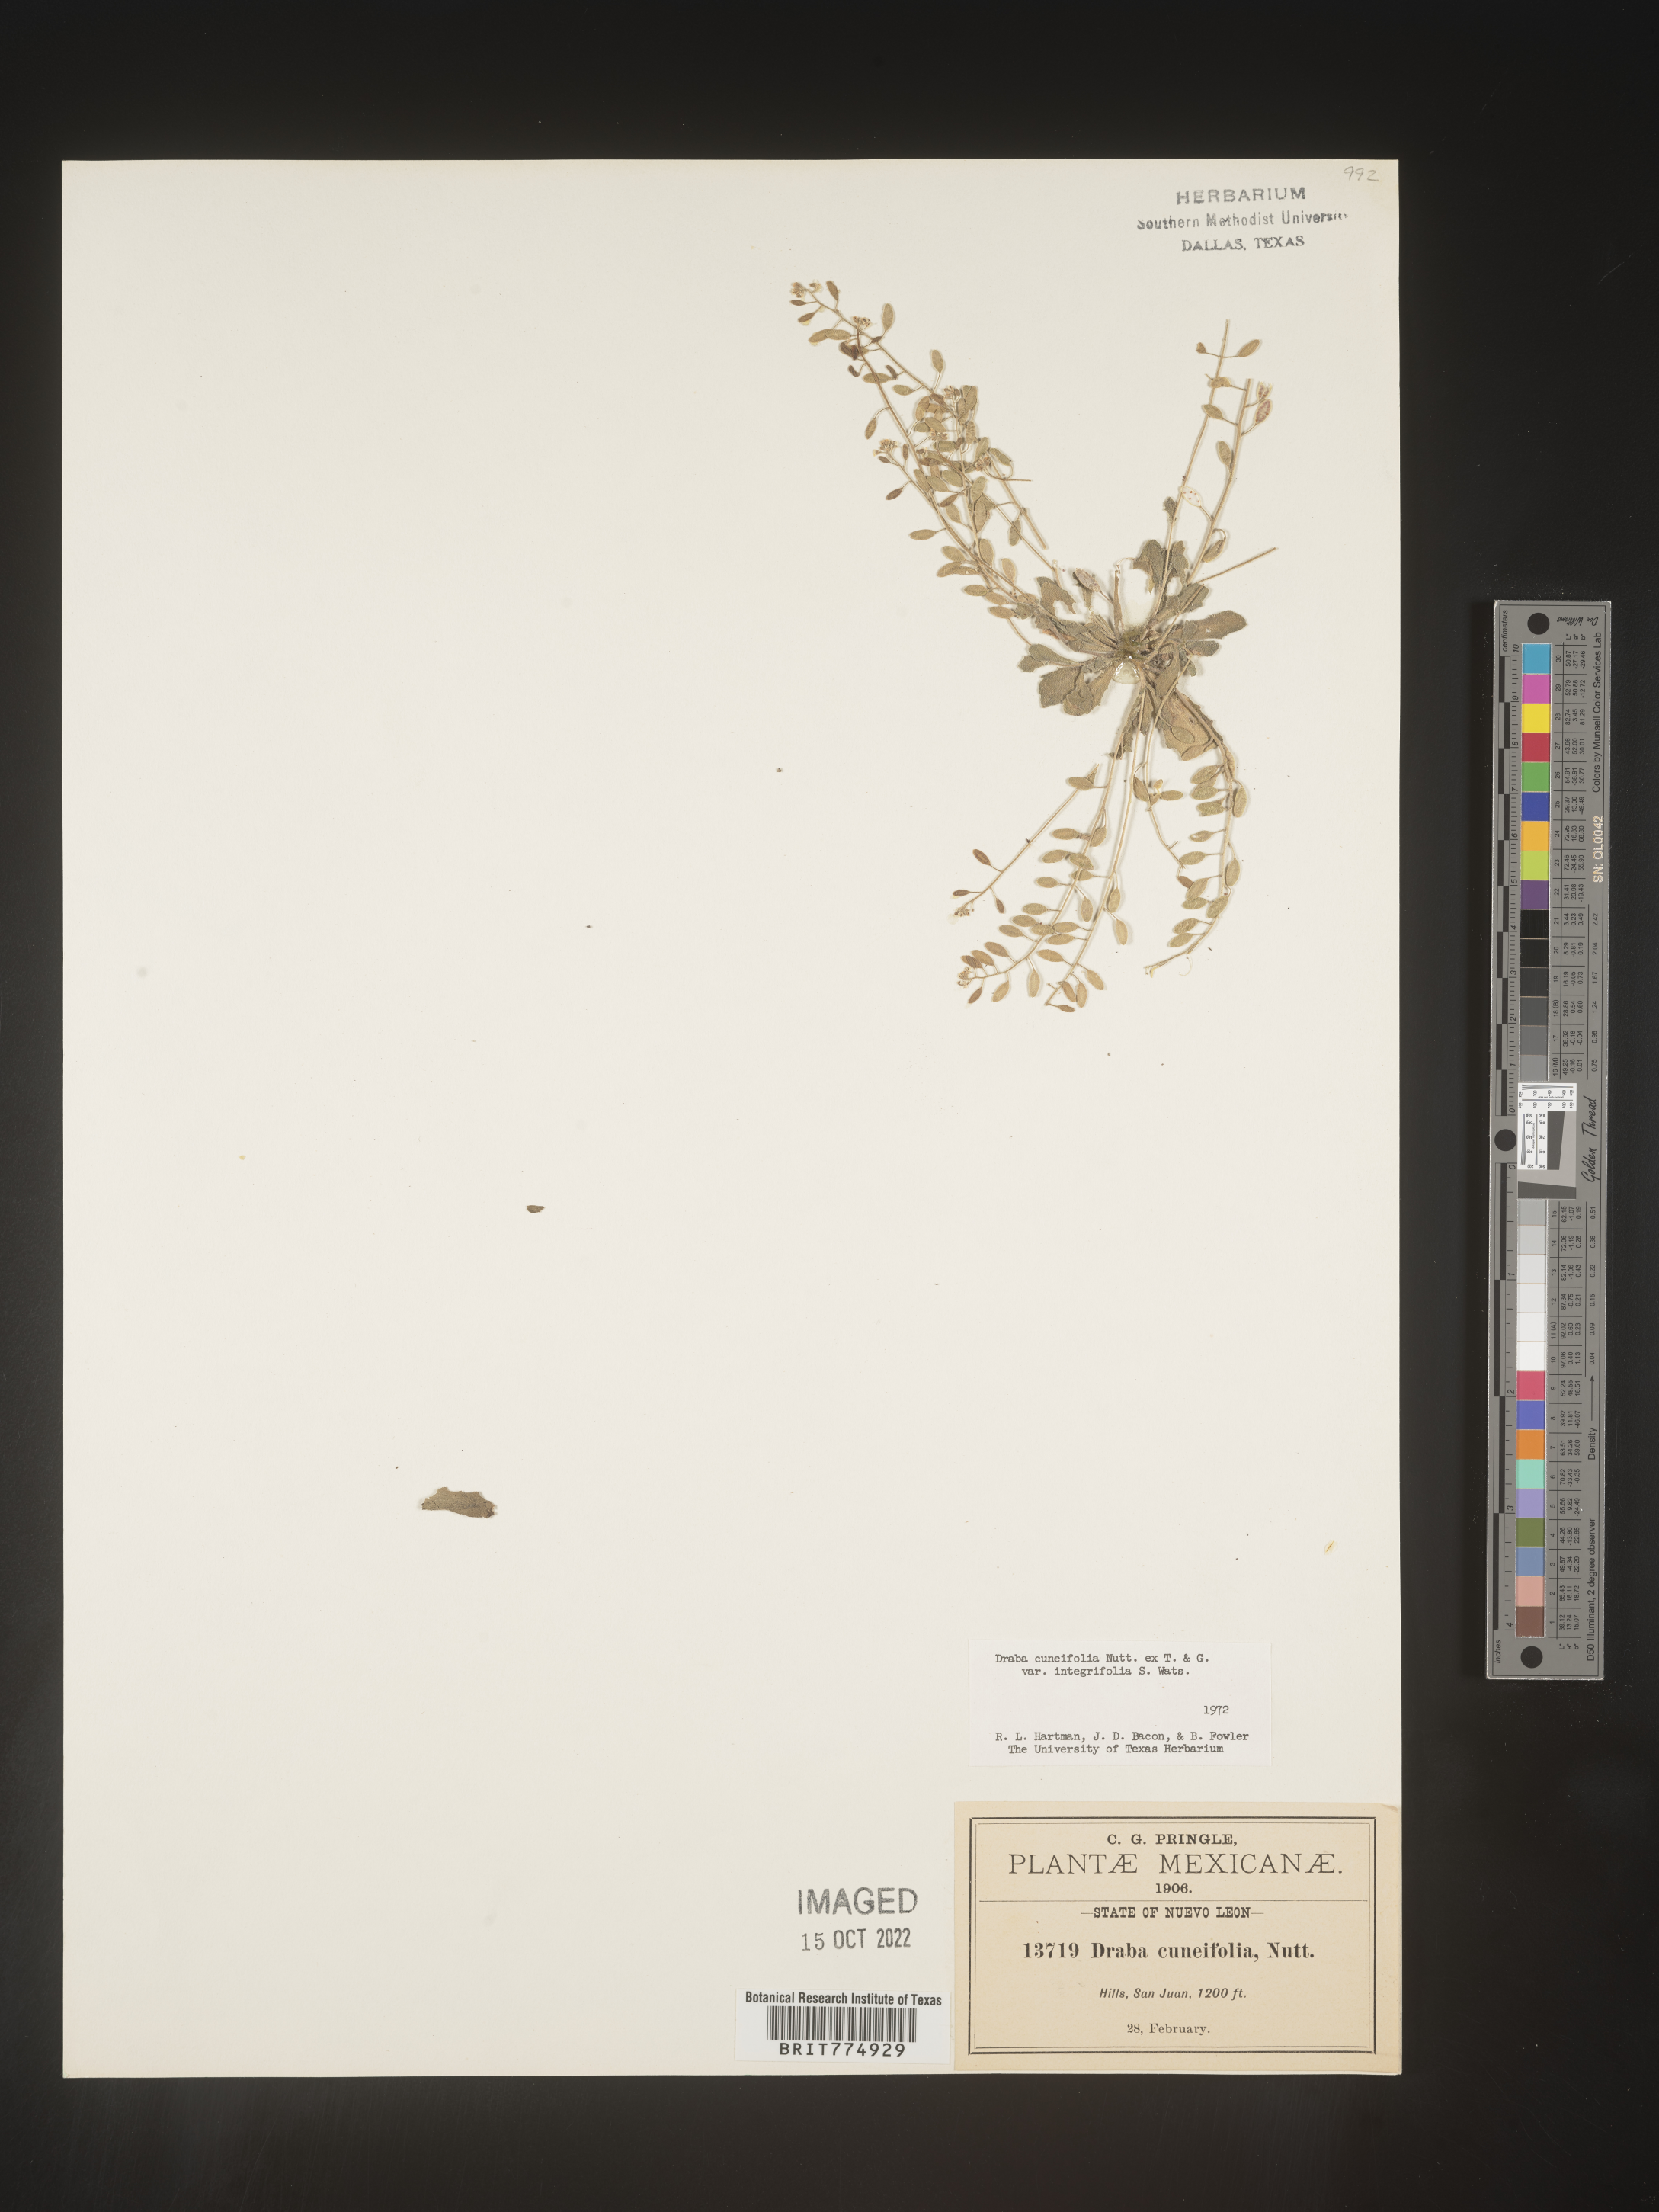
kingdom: Plantae
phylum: Tracheophyta
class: Magnoliopsida
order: Brassicales
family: Brassicaceae
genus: Draba
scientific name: Draba
